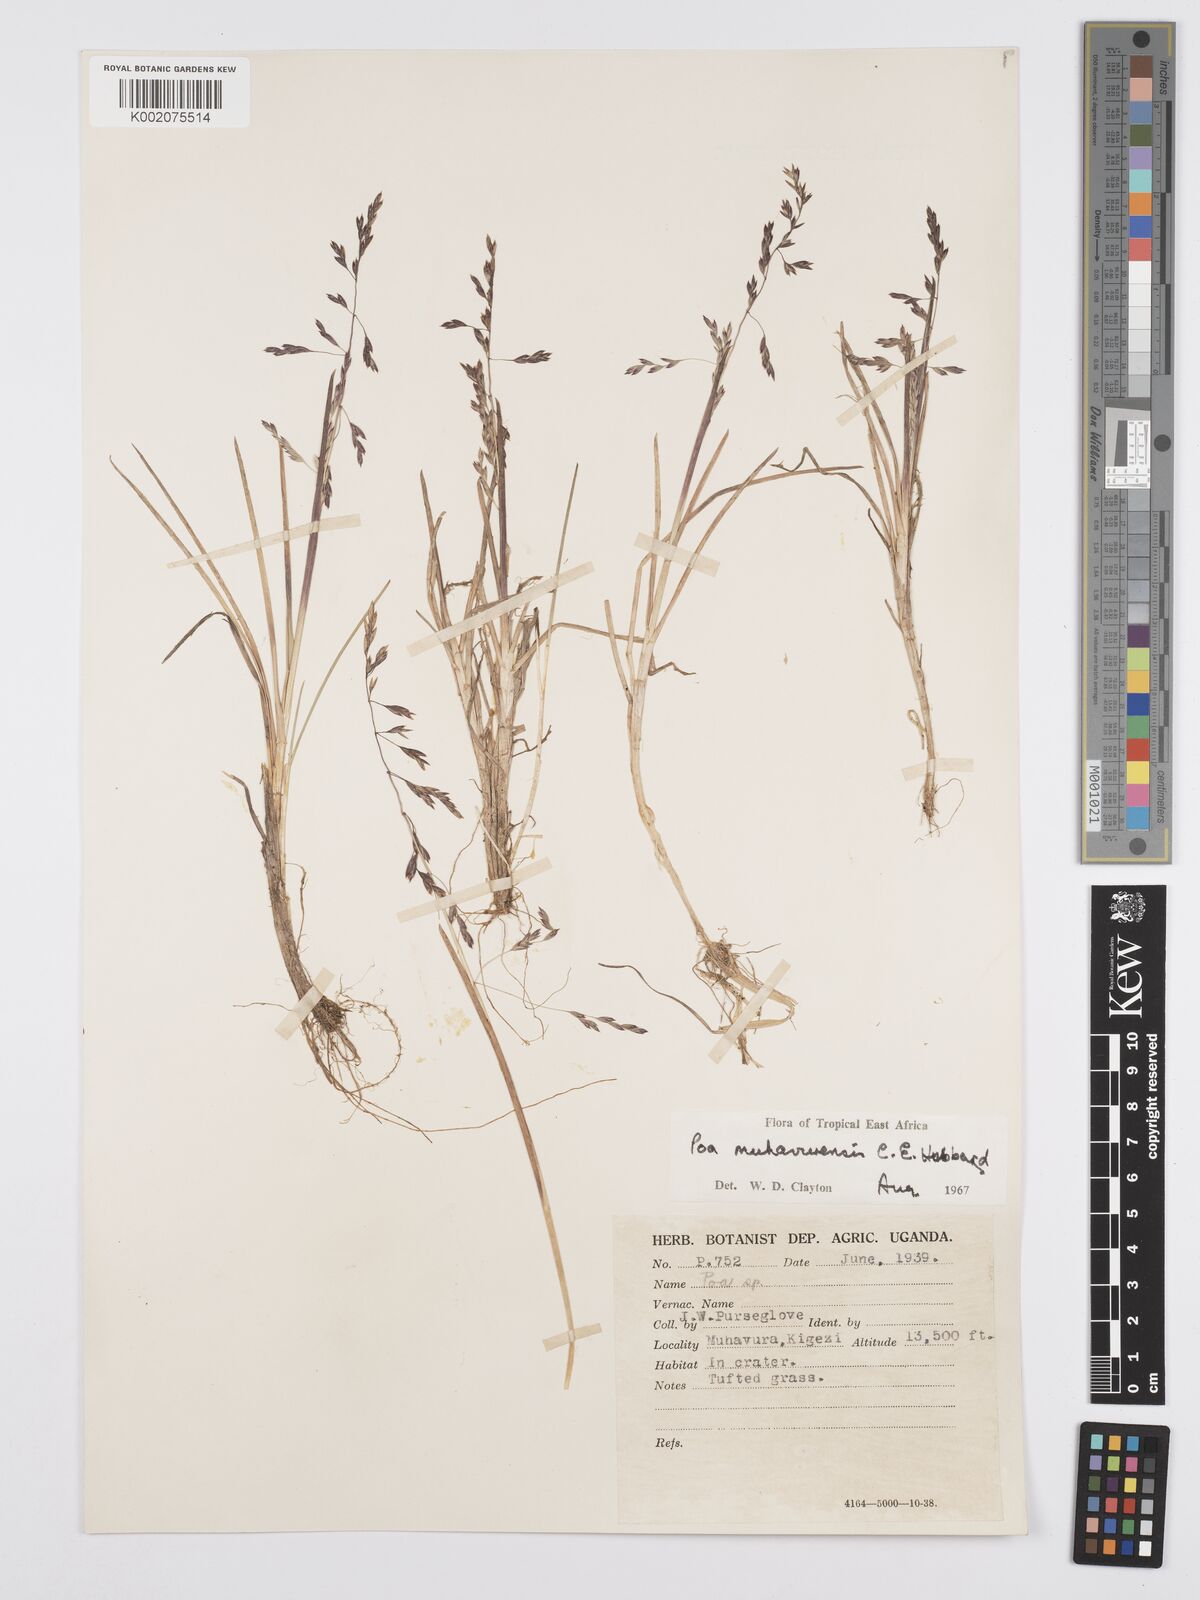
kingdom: Plantae
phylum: Tracheophyta
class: Liliopsida
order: Poales
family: Poaceae
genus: Poa
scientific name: Poa schimperiana
